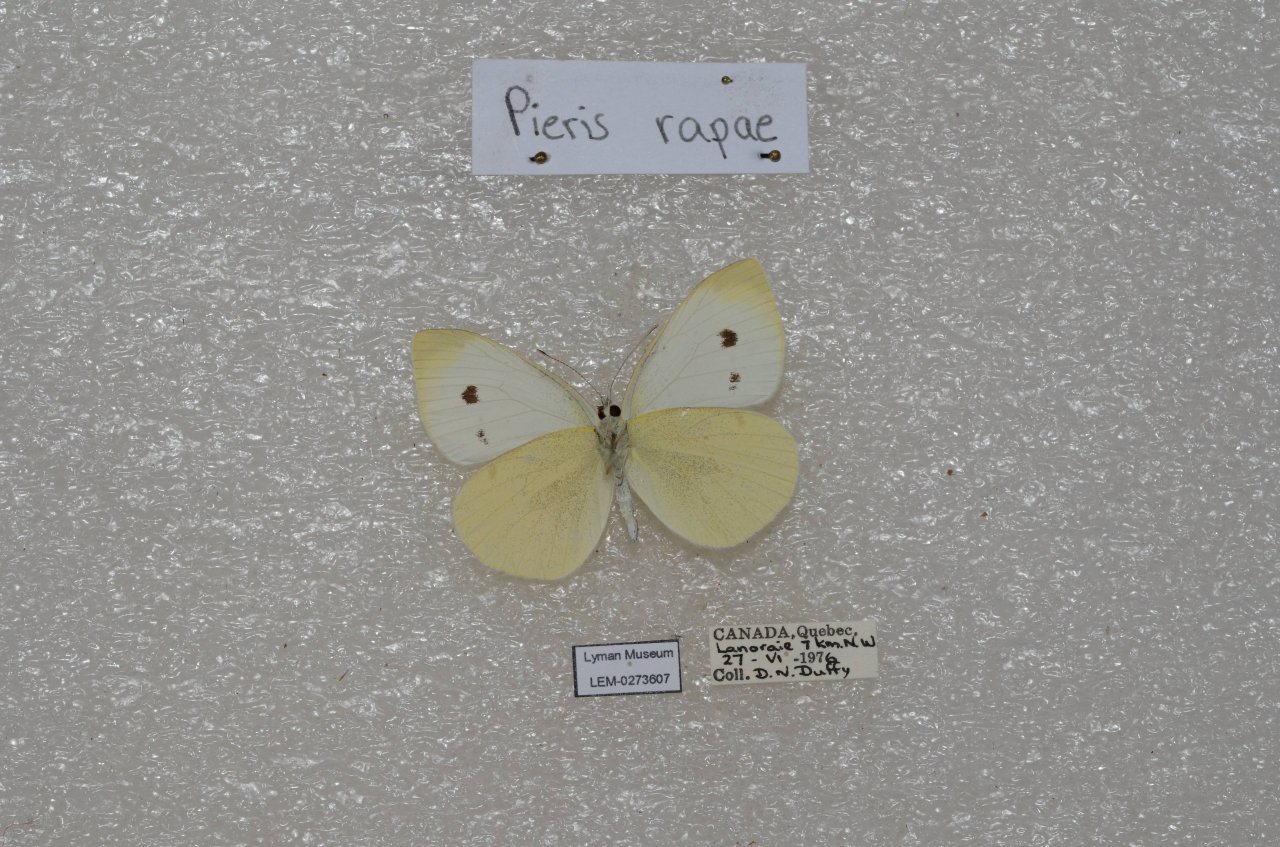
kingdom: Animalia
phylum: Arthropoda
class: Insecta
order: Lepidoptera
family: Pieridae
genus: Pieris
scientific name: Pieris rapae
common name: Cabbage White
